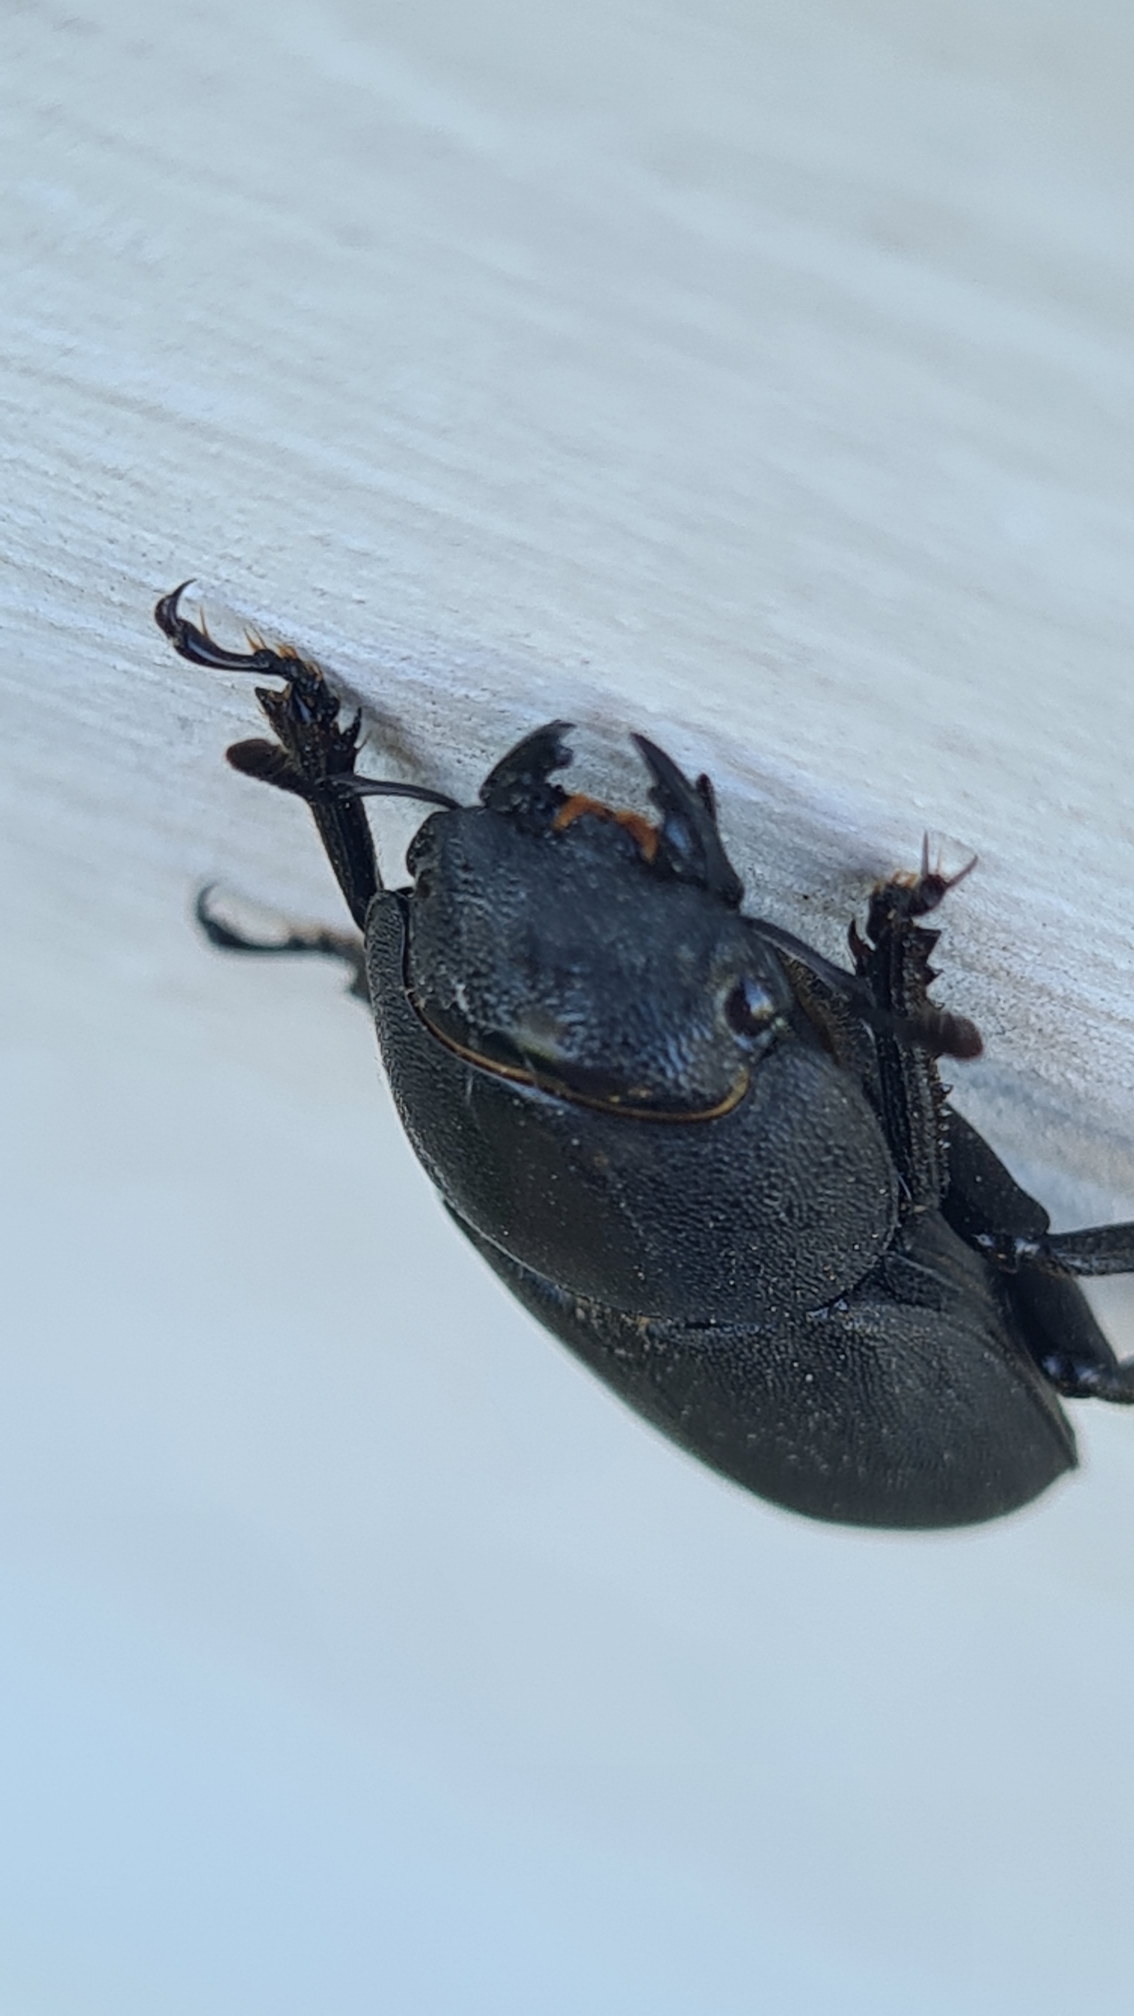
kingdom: Animalia
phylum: Arthropoda
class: Insecta
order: Coleoptera
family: Lucanidae
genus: Dorcus
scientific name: Dorcus parallelipipedus
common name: Bøghjort
